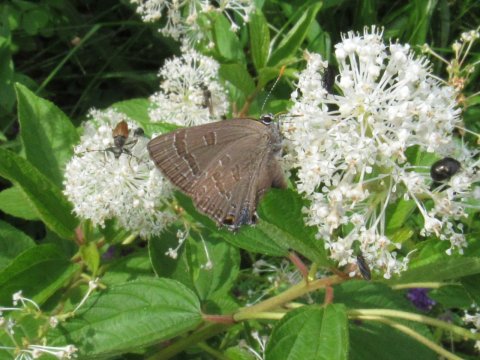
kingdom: Animalia
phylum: Arthropoda
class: Insecta
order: Lepidoptera
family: Lycaenidae
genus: Strymon
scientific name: Strymon caryaevorus
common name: Hickory Hairstreak
